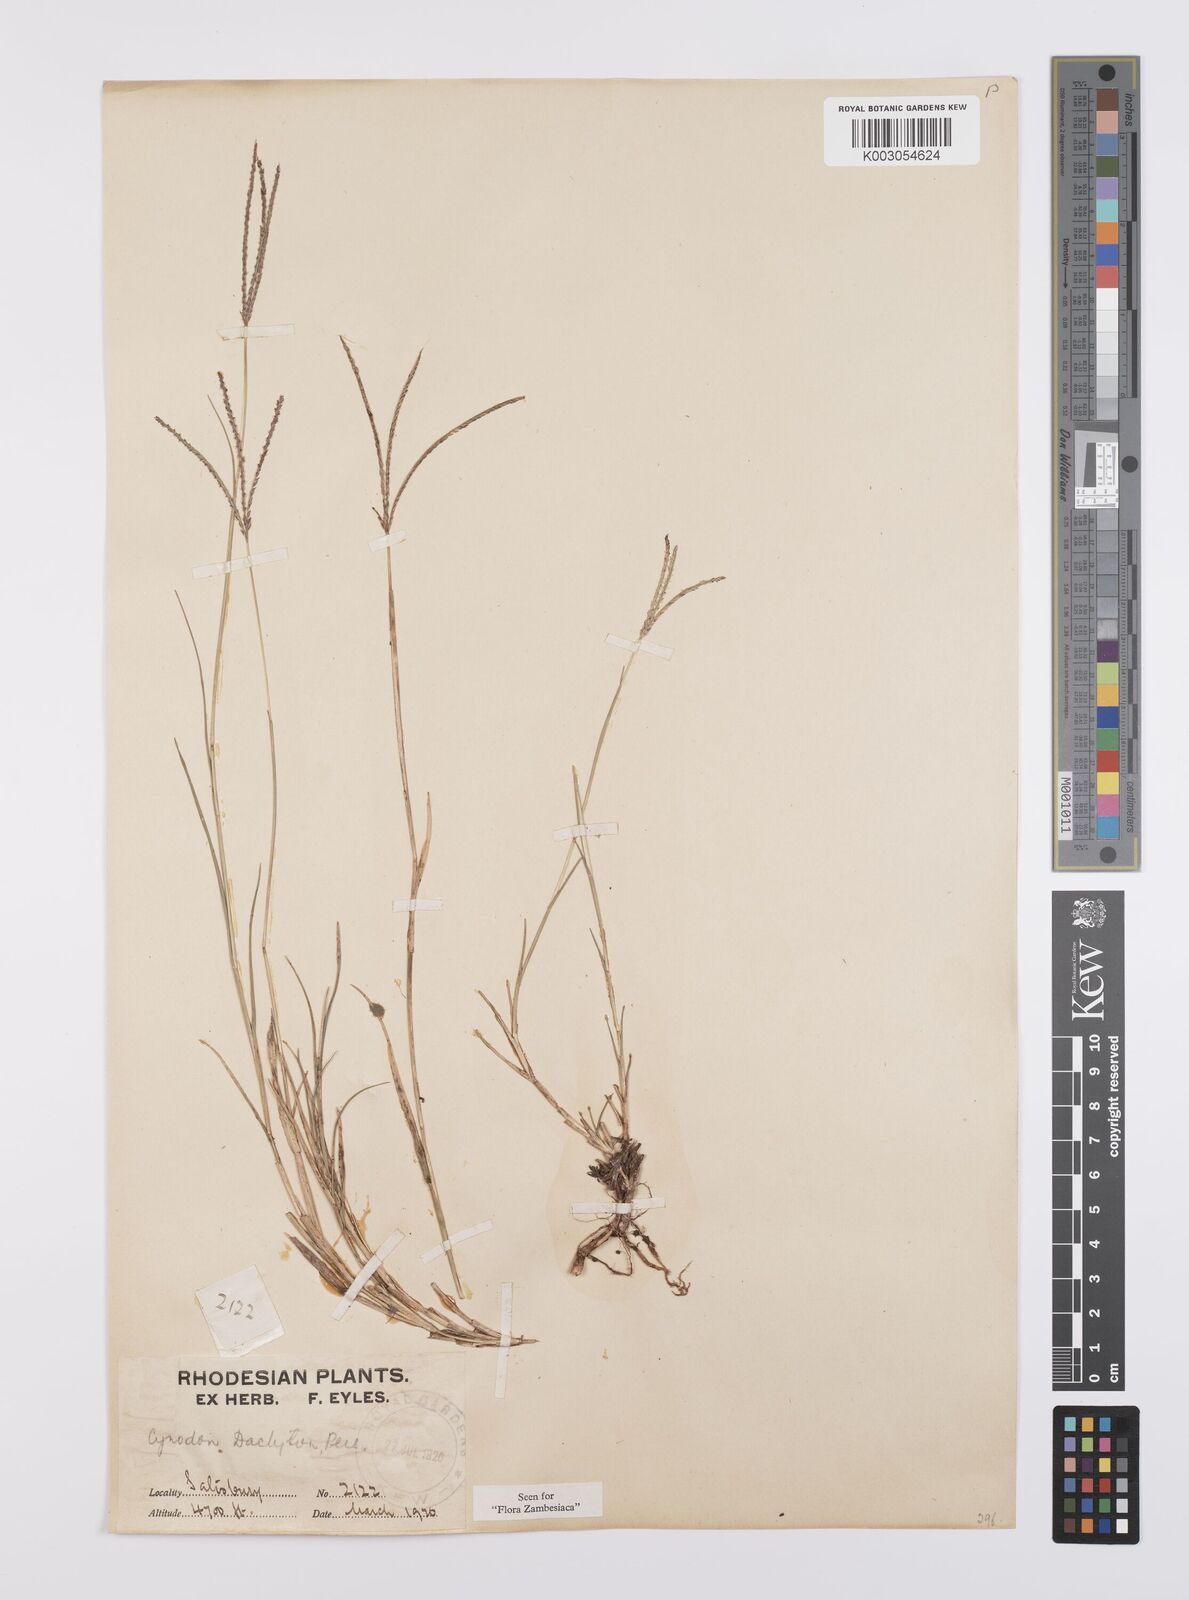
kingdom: Plantae
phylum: Tracheophyta
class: Liliopsida
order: Poales
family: Poaceae
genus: Cynodon
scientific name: Cynodon dactylon
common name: Bermuda grass
